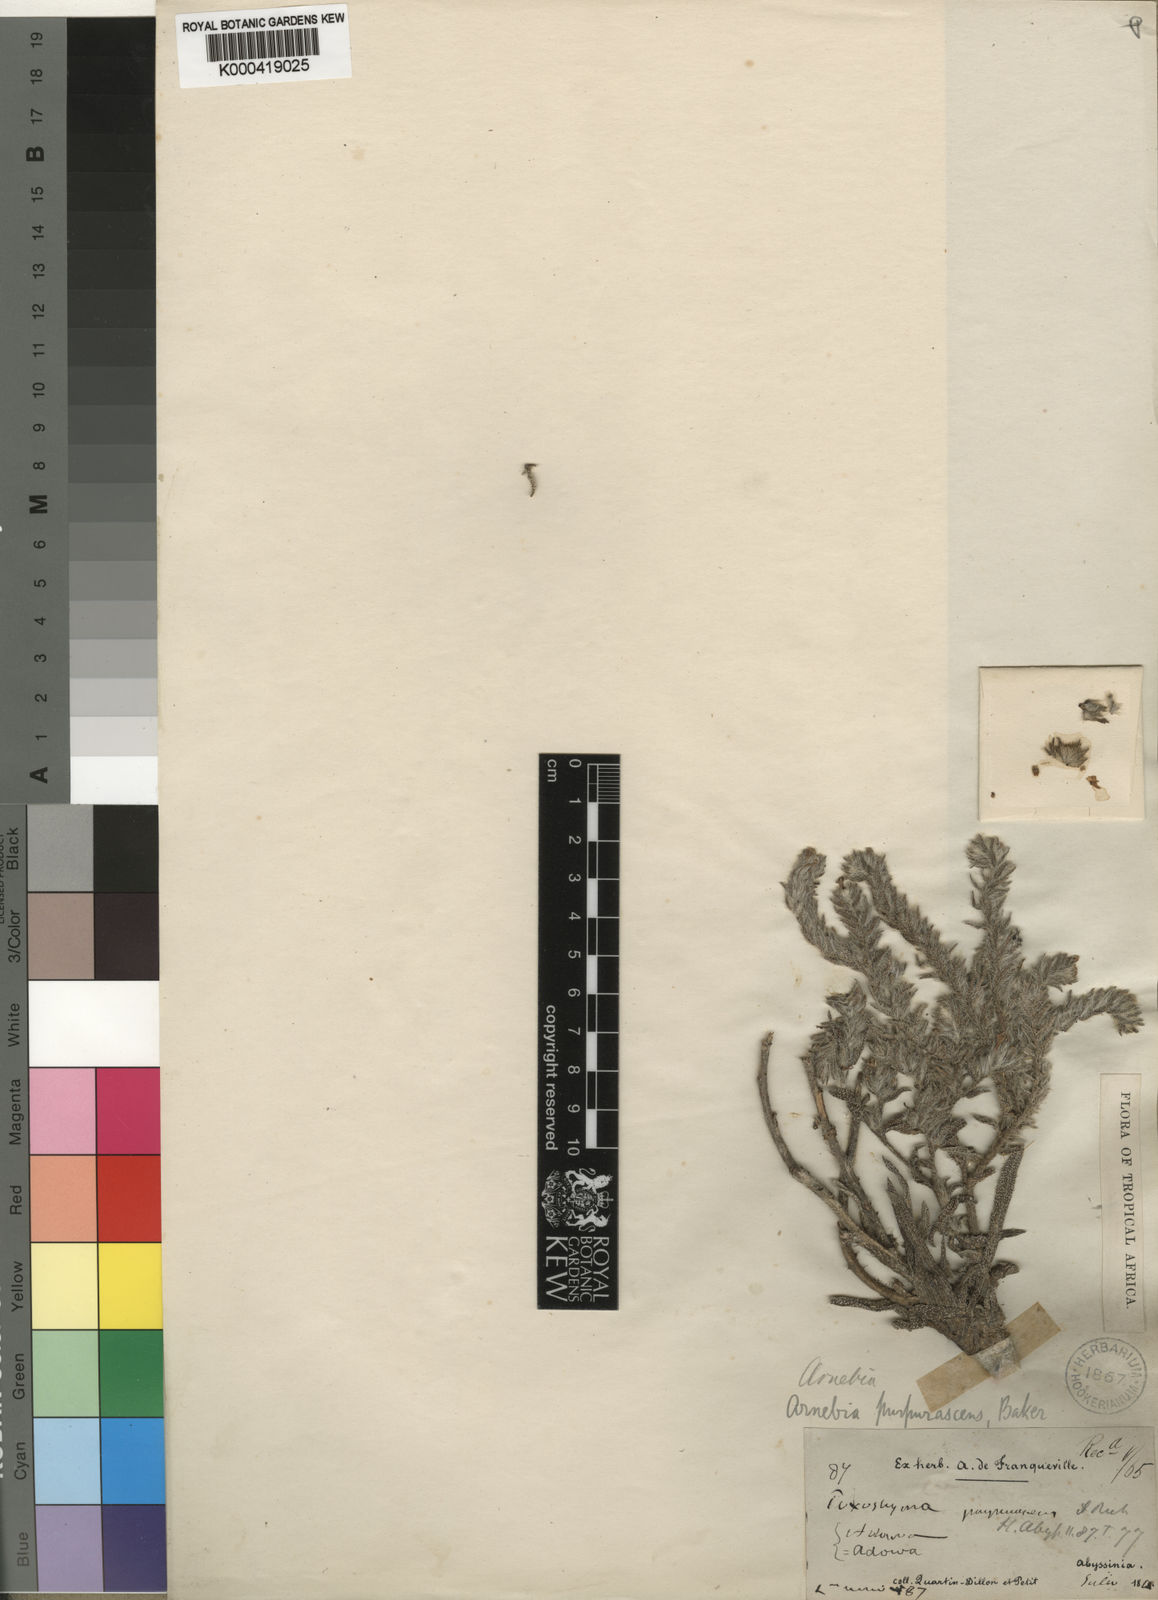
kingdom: Plantae
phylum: Tracheophyta
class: Magnoliopsida
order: Boraginales
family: Boraginaceae
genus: Arnebia
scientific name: Arnebia purpurascens
